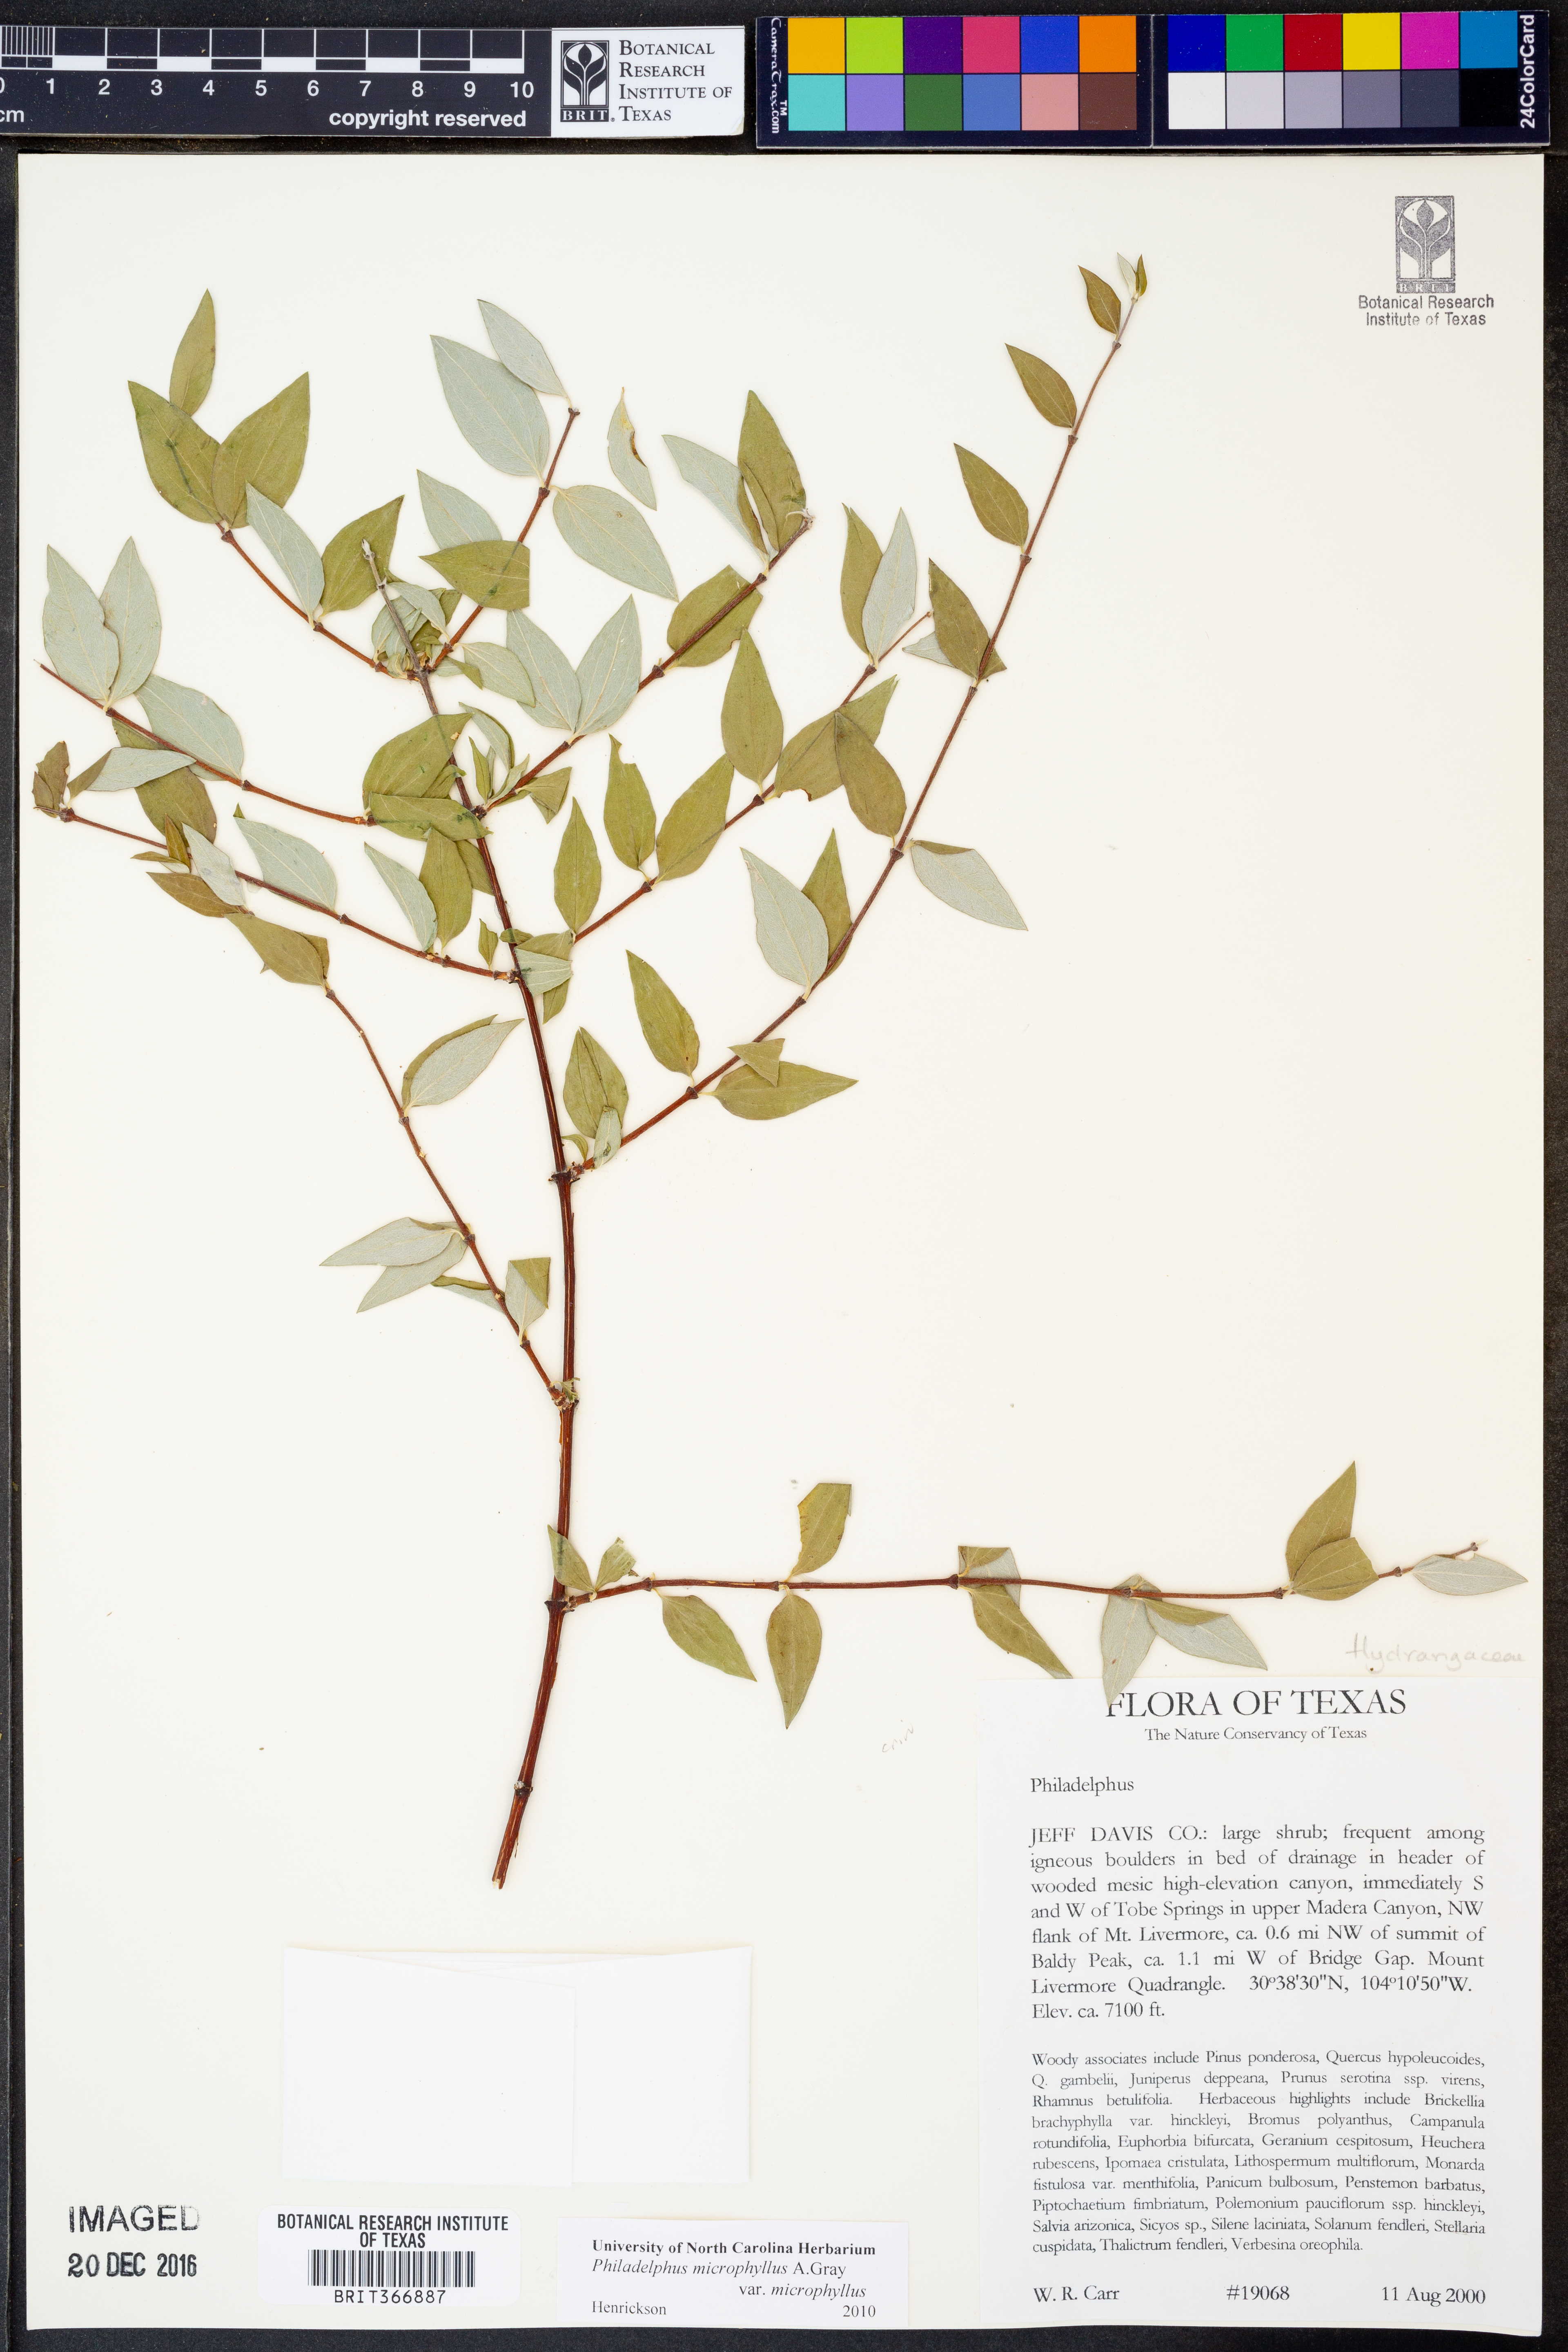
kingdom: Plantae
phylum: Tracheophyta
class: Magnoliopsida
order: Cornales
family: Hydrangeaceae
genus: Philadelphus
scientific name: Philadelphus microphyllus
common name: Desert mock orange
